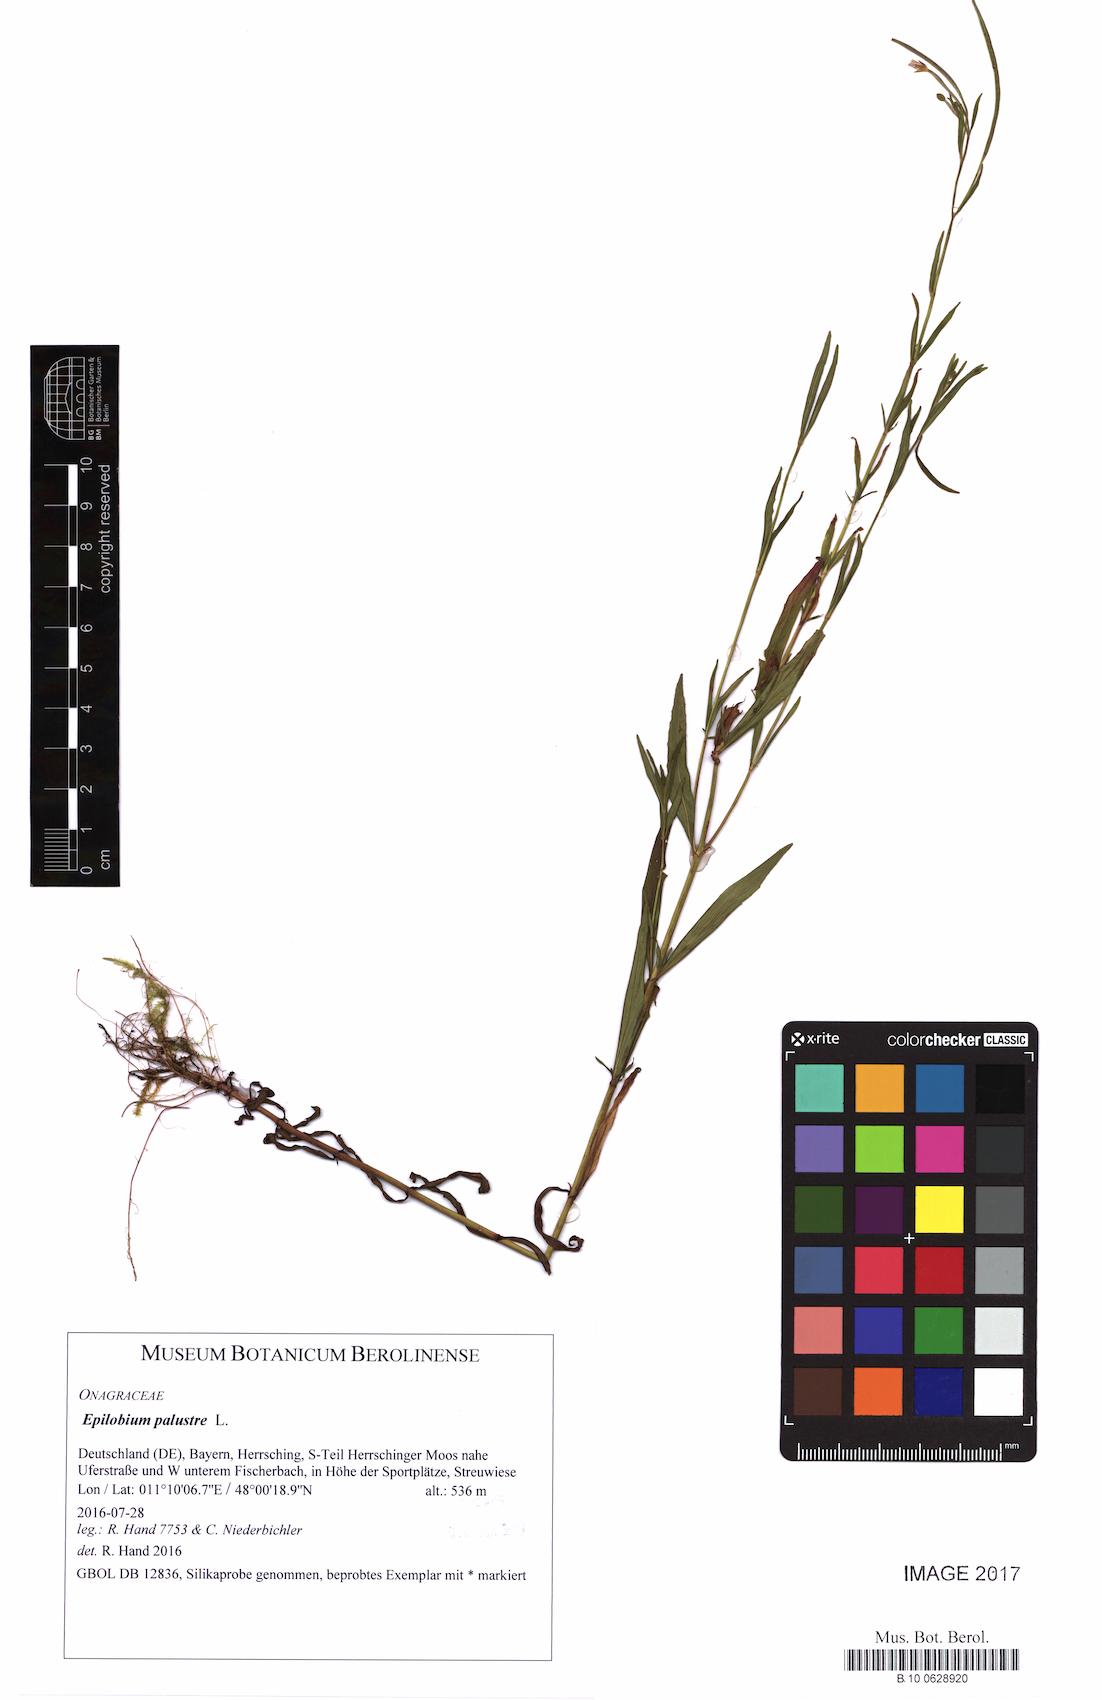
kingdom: Plantae
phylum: Tracheophyta
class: Magnoliopsida
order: Myrtales
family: Onagraceae
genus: Epilobium
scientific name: Epilobium palustre
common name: Marsh willowherb
